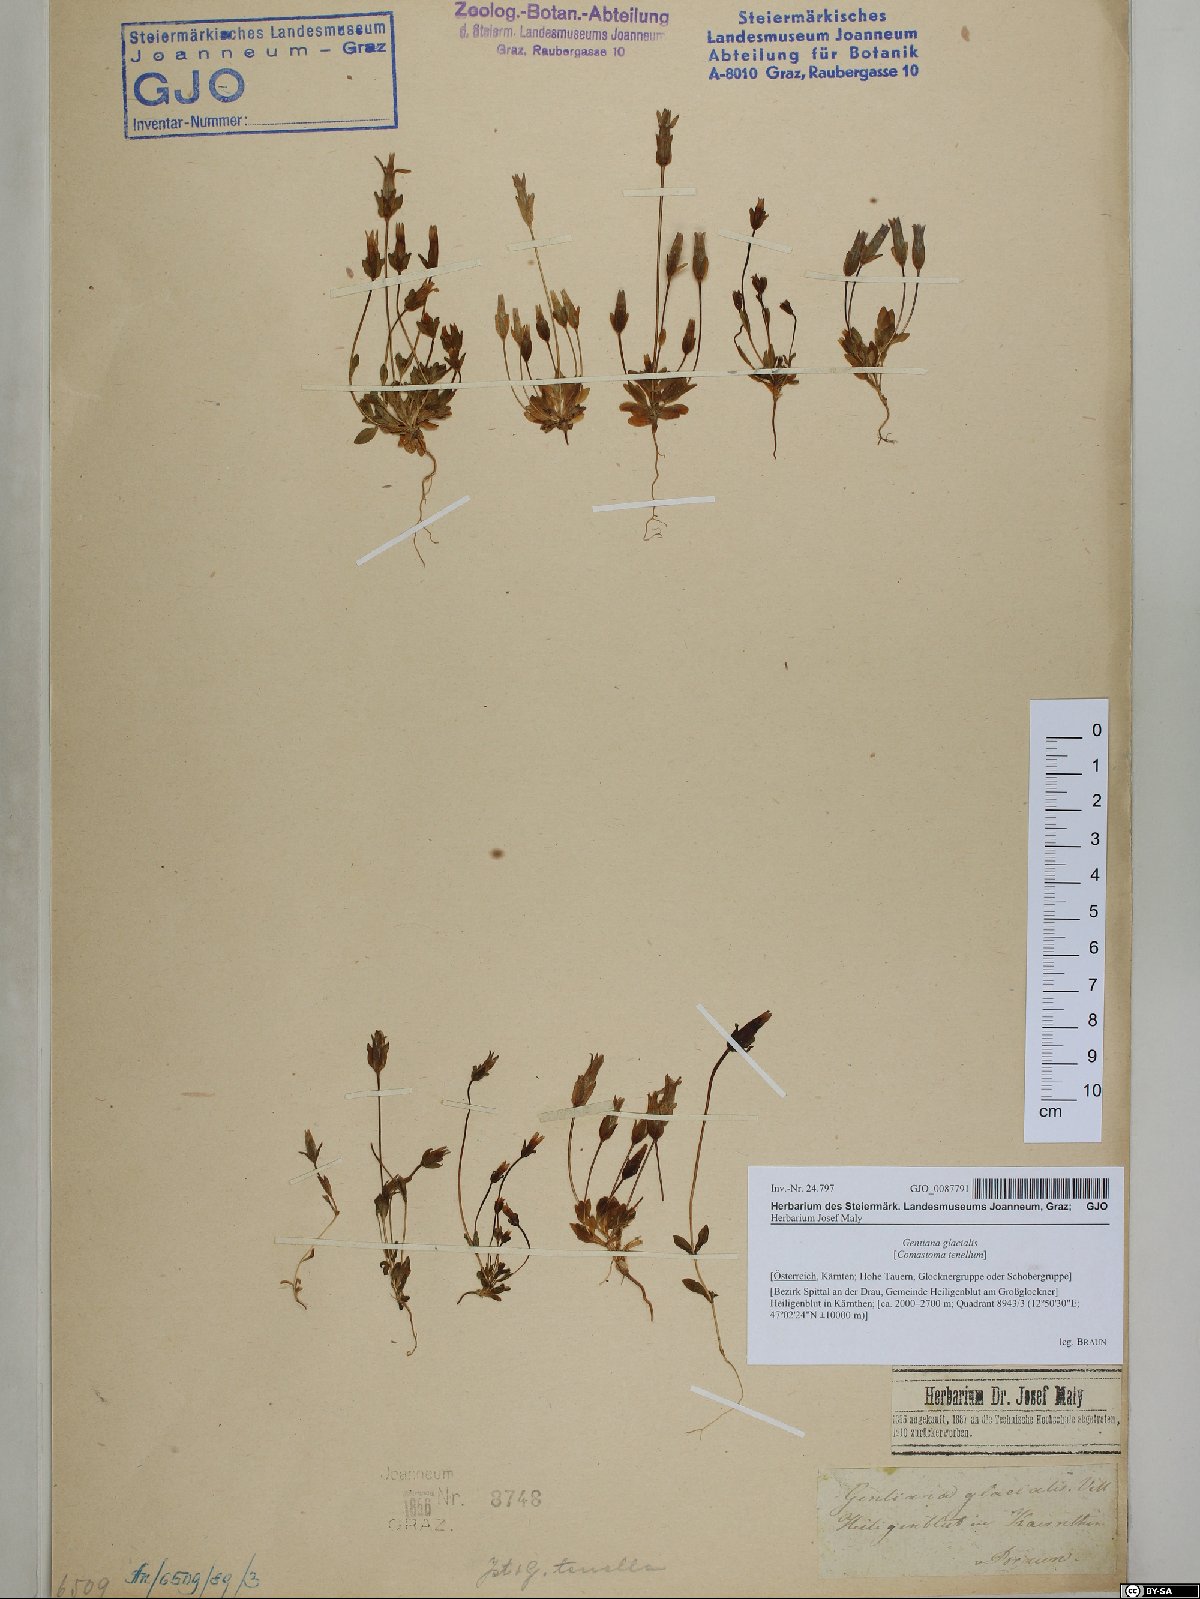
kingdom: Plantae
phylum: Tracheophyta
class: Magnoliopsida
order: Gentianales
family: Gentianaceae
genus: Comastoma
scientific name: Comastoma tenellum
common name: Dane's dwarf gentian
